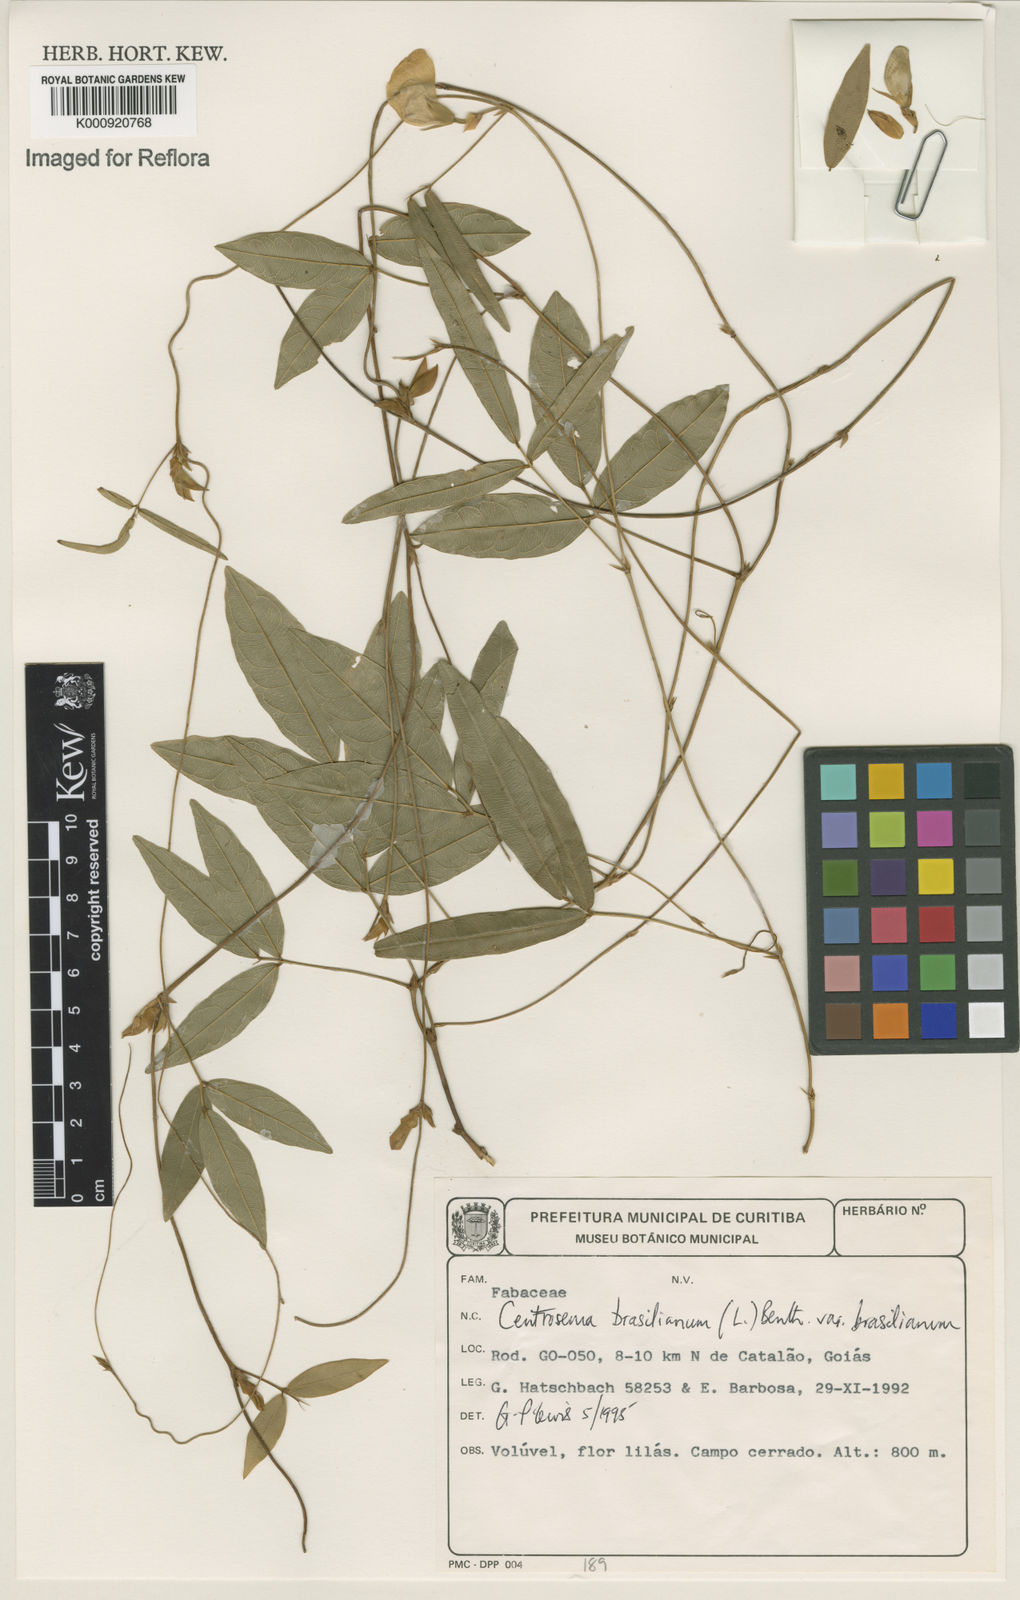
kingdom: Plantae
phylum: Tracheophyta
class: Magnoliopsida
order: Fabales
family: Fabaceae
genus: Centrosema
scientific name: Centrosema brasilianum
